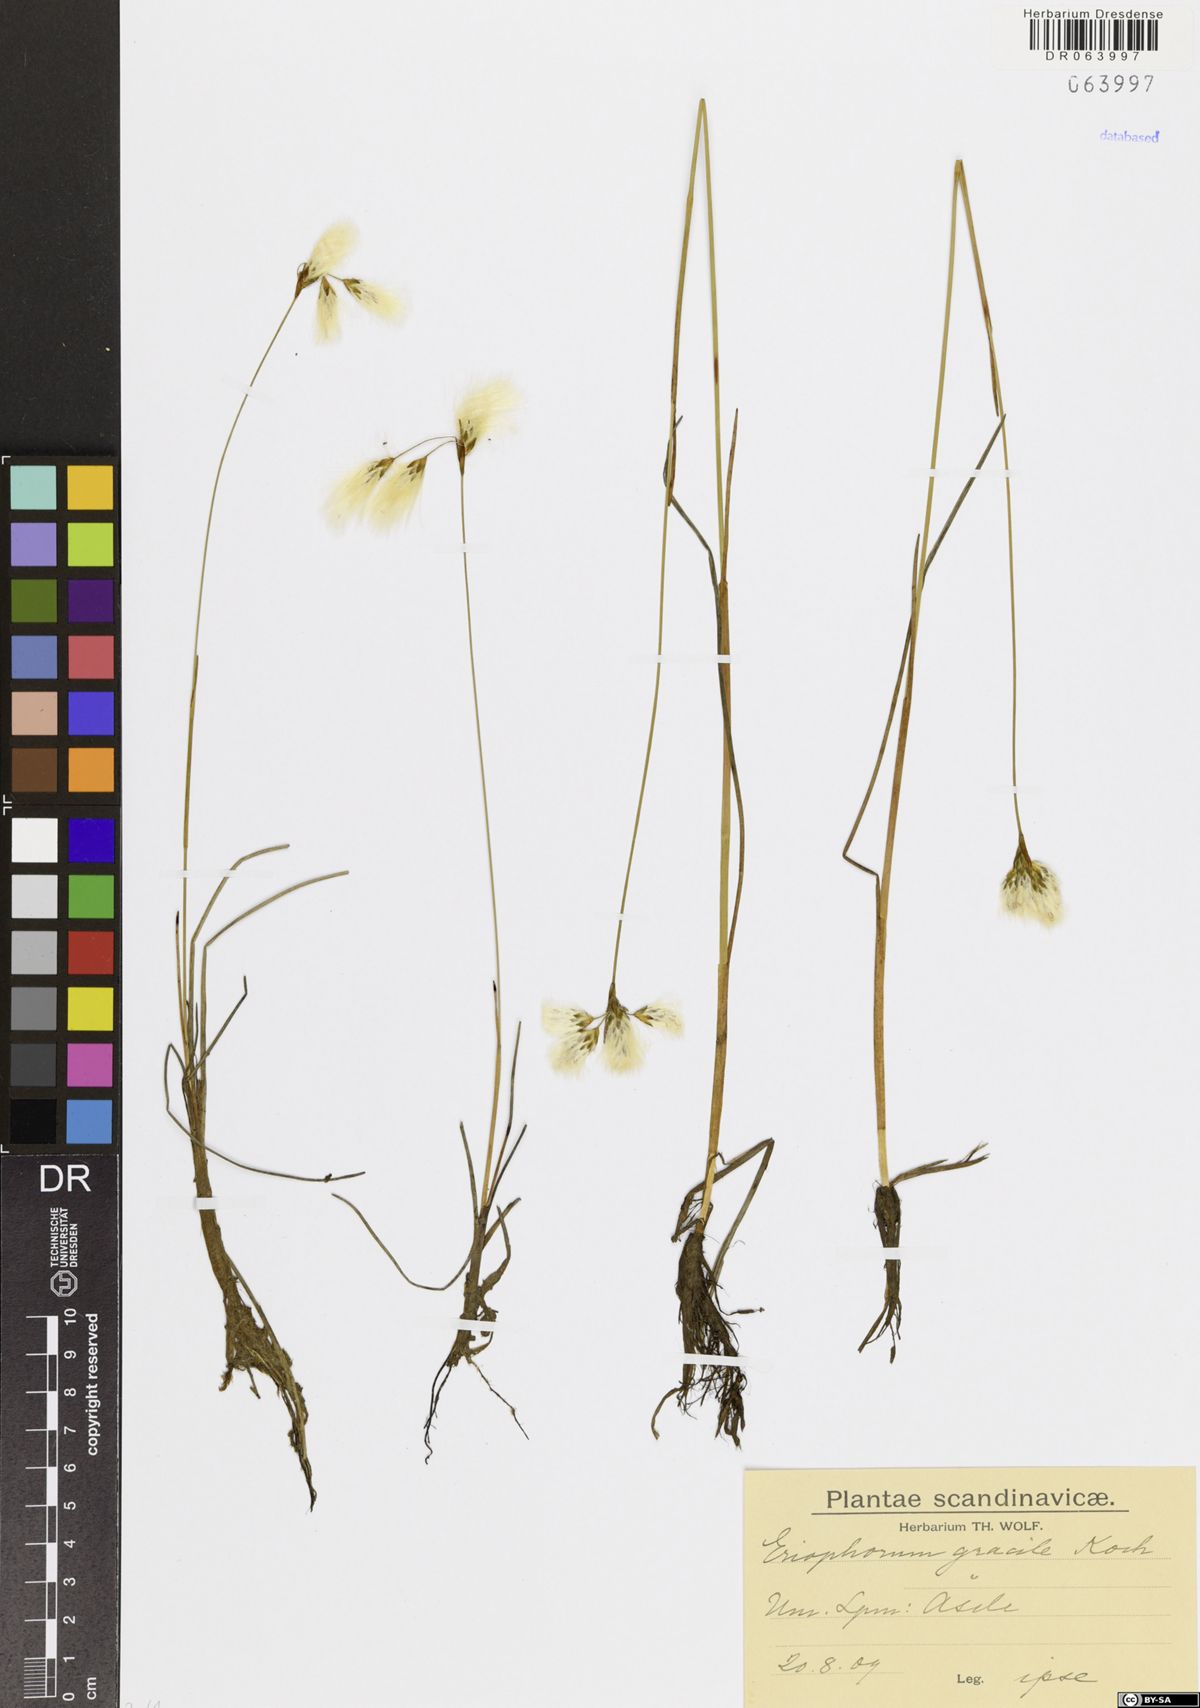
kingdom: Plantae
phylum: Tracheophyta
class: Liliopsida
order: Poales
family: Cyperaceae
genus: Eriophorum
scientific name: Eriophorum gracile
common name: Slender cottongrass
